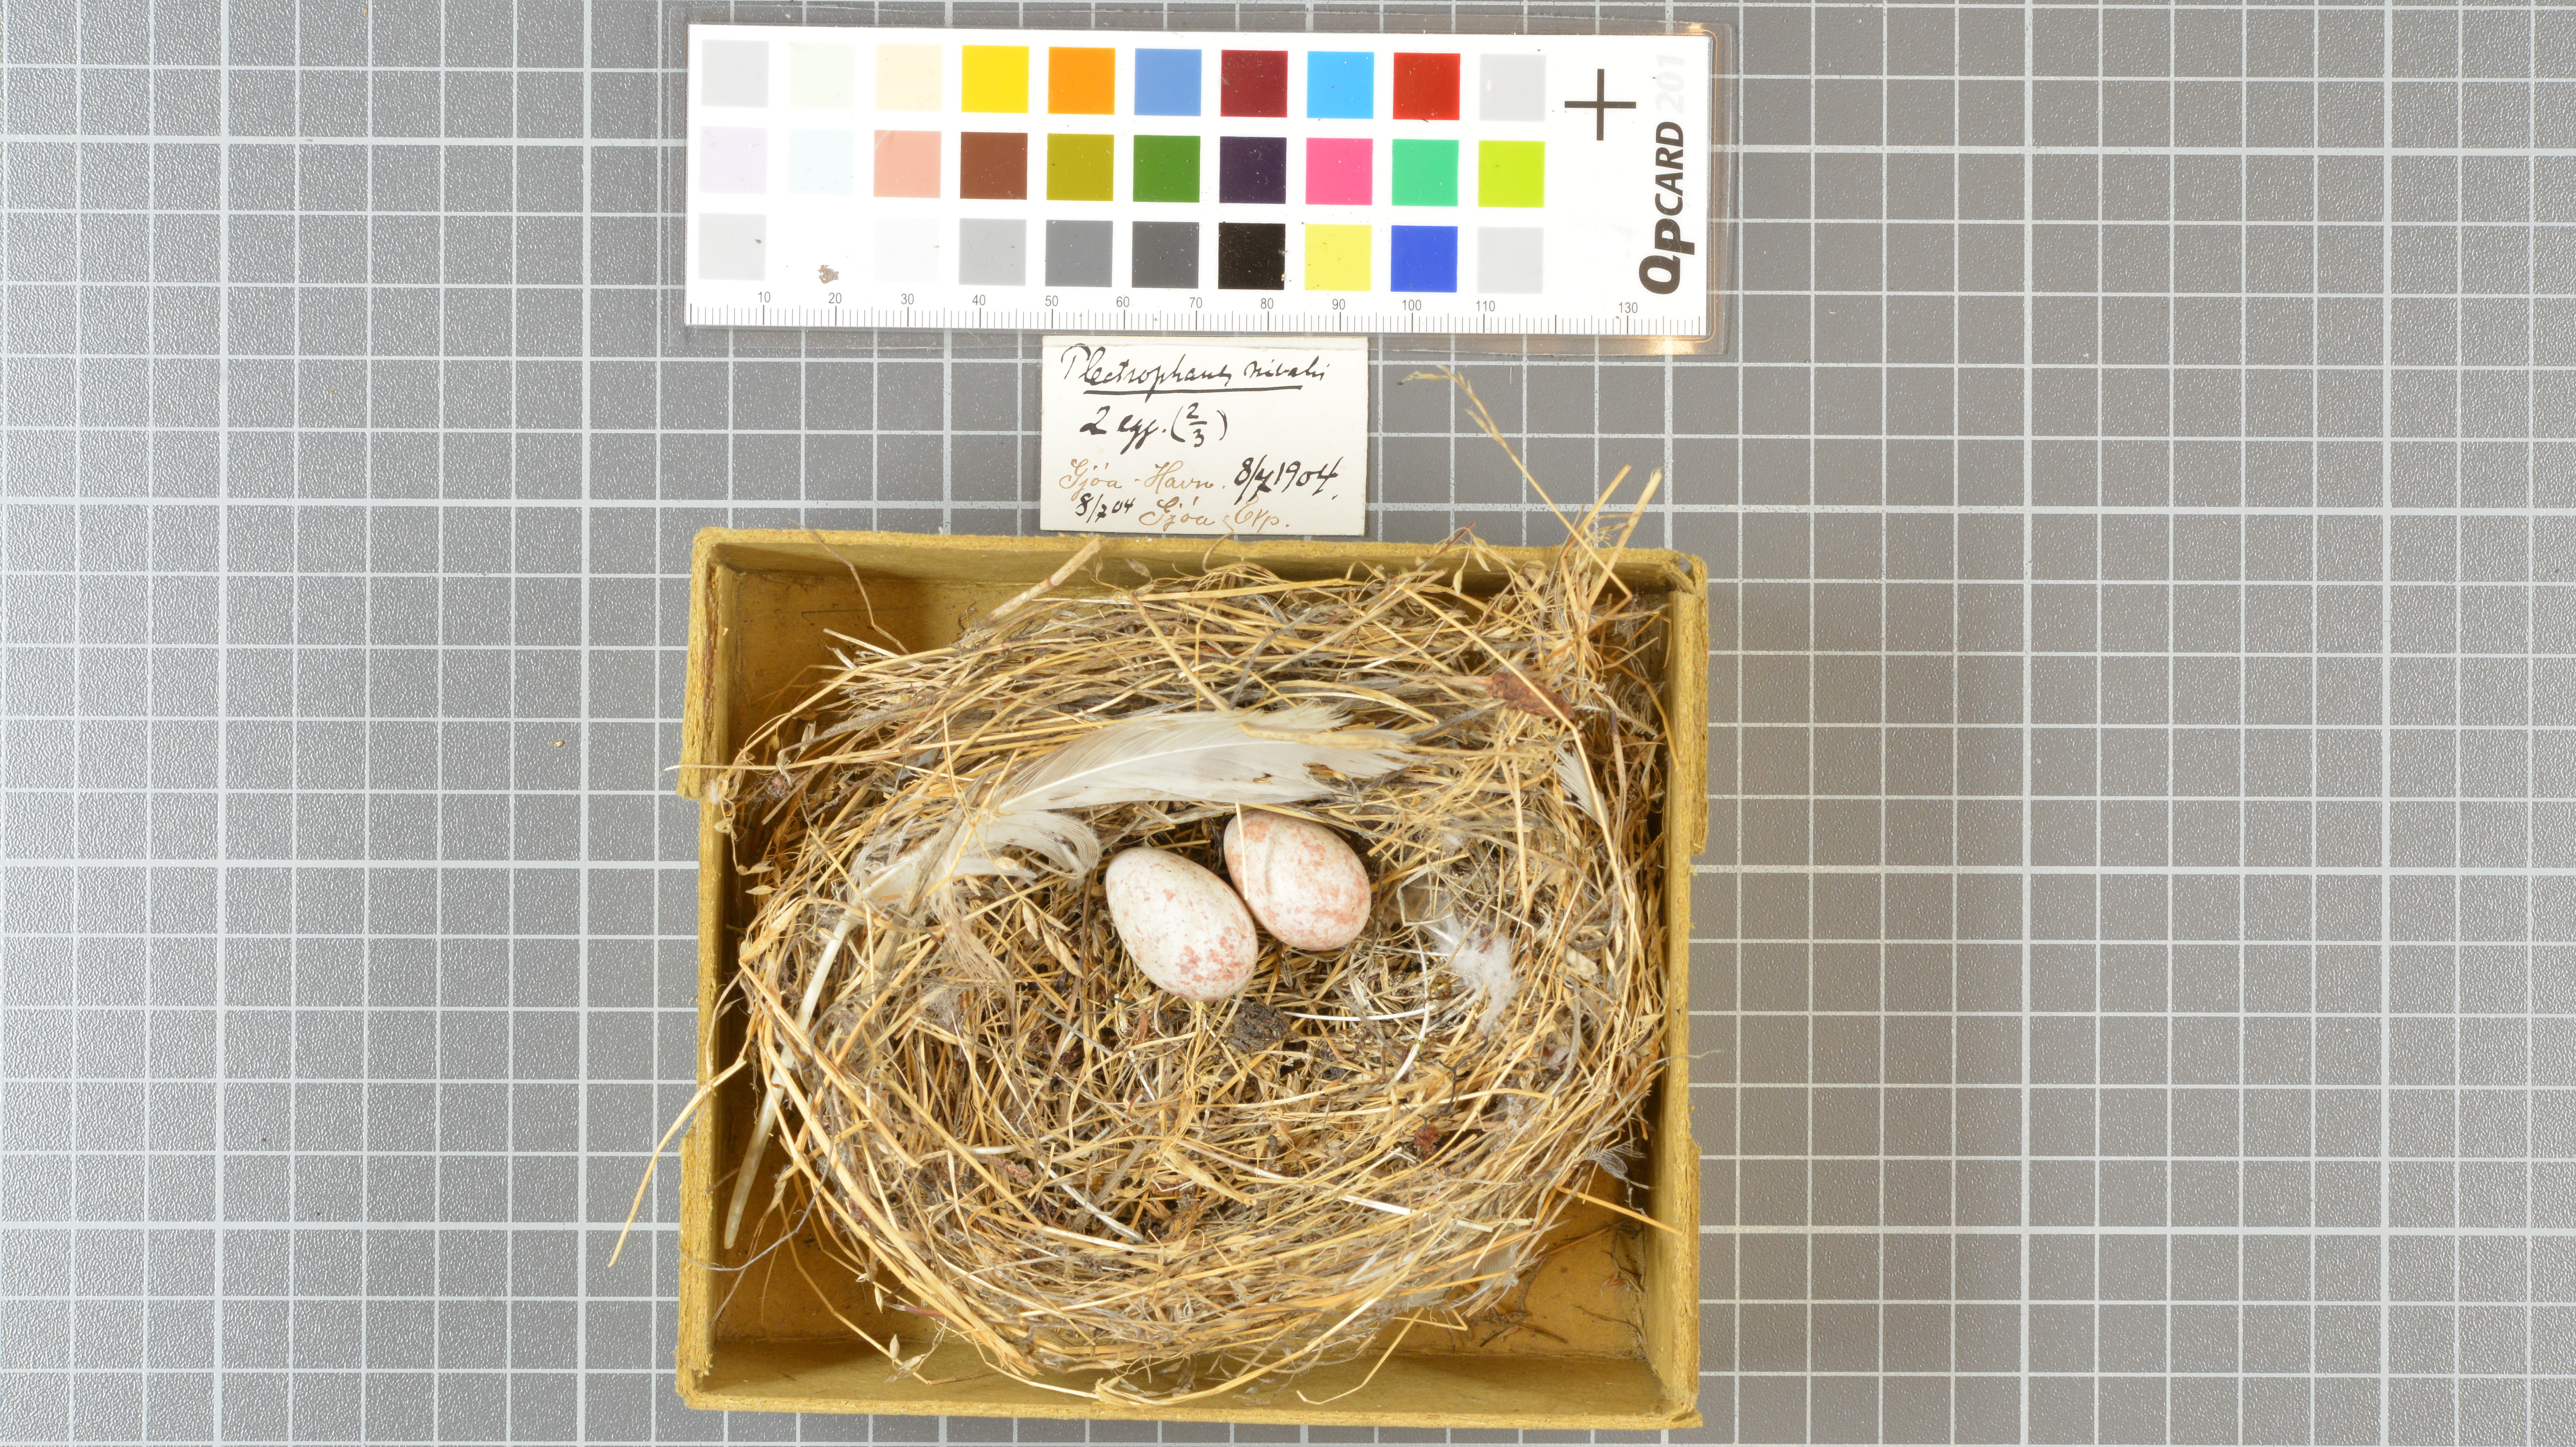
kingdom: Animalia
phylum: Chordata
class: Aves
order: Passeriformes
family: Calcariidae
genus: Plectrophenax
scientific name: Plectrophenax nivalis
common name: Snow bunting
